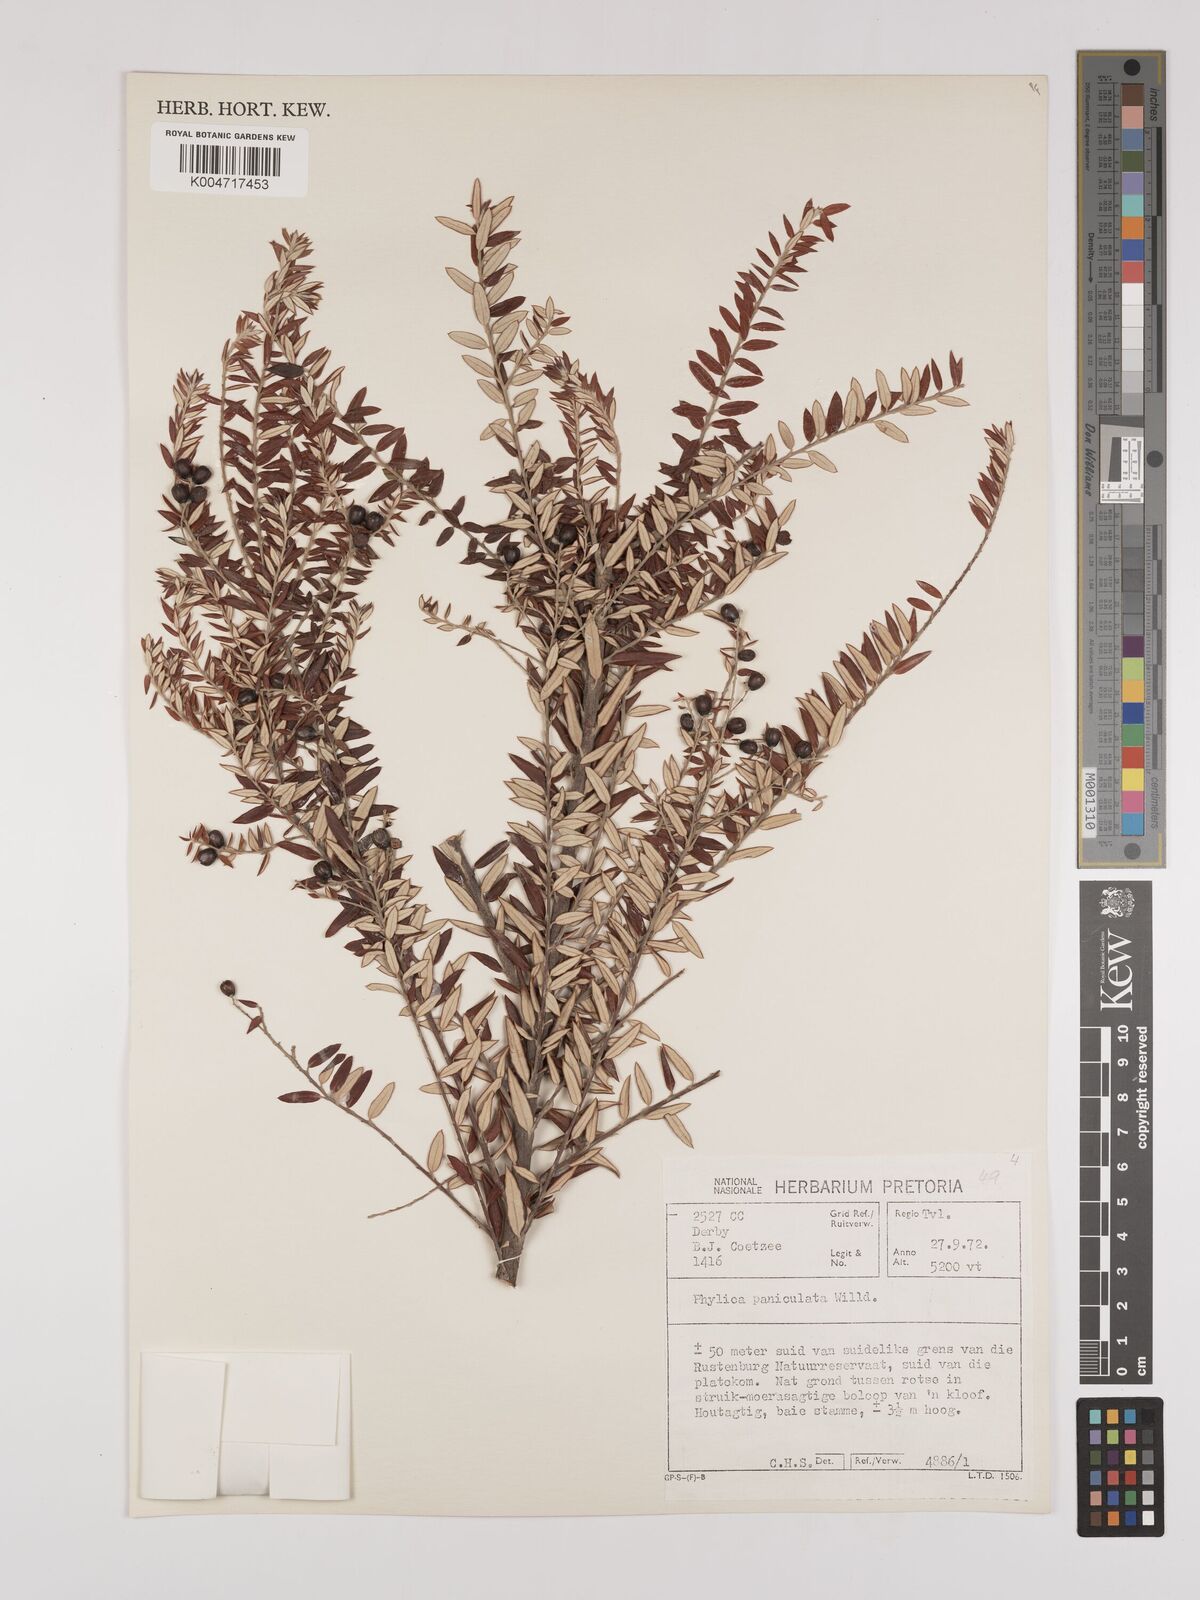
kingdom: Plantae
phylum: Tracheophyta
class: Magnoliopsida
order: Rosales
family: Rhamnaceae
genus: Phylica
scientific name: Phylica paniculata
